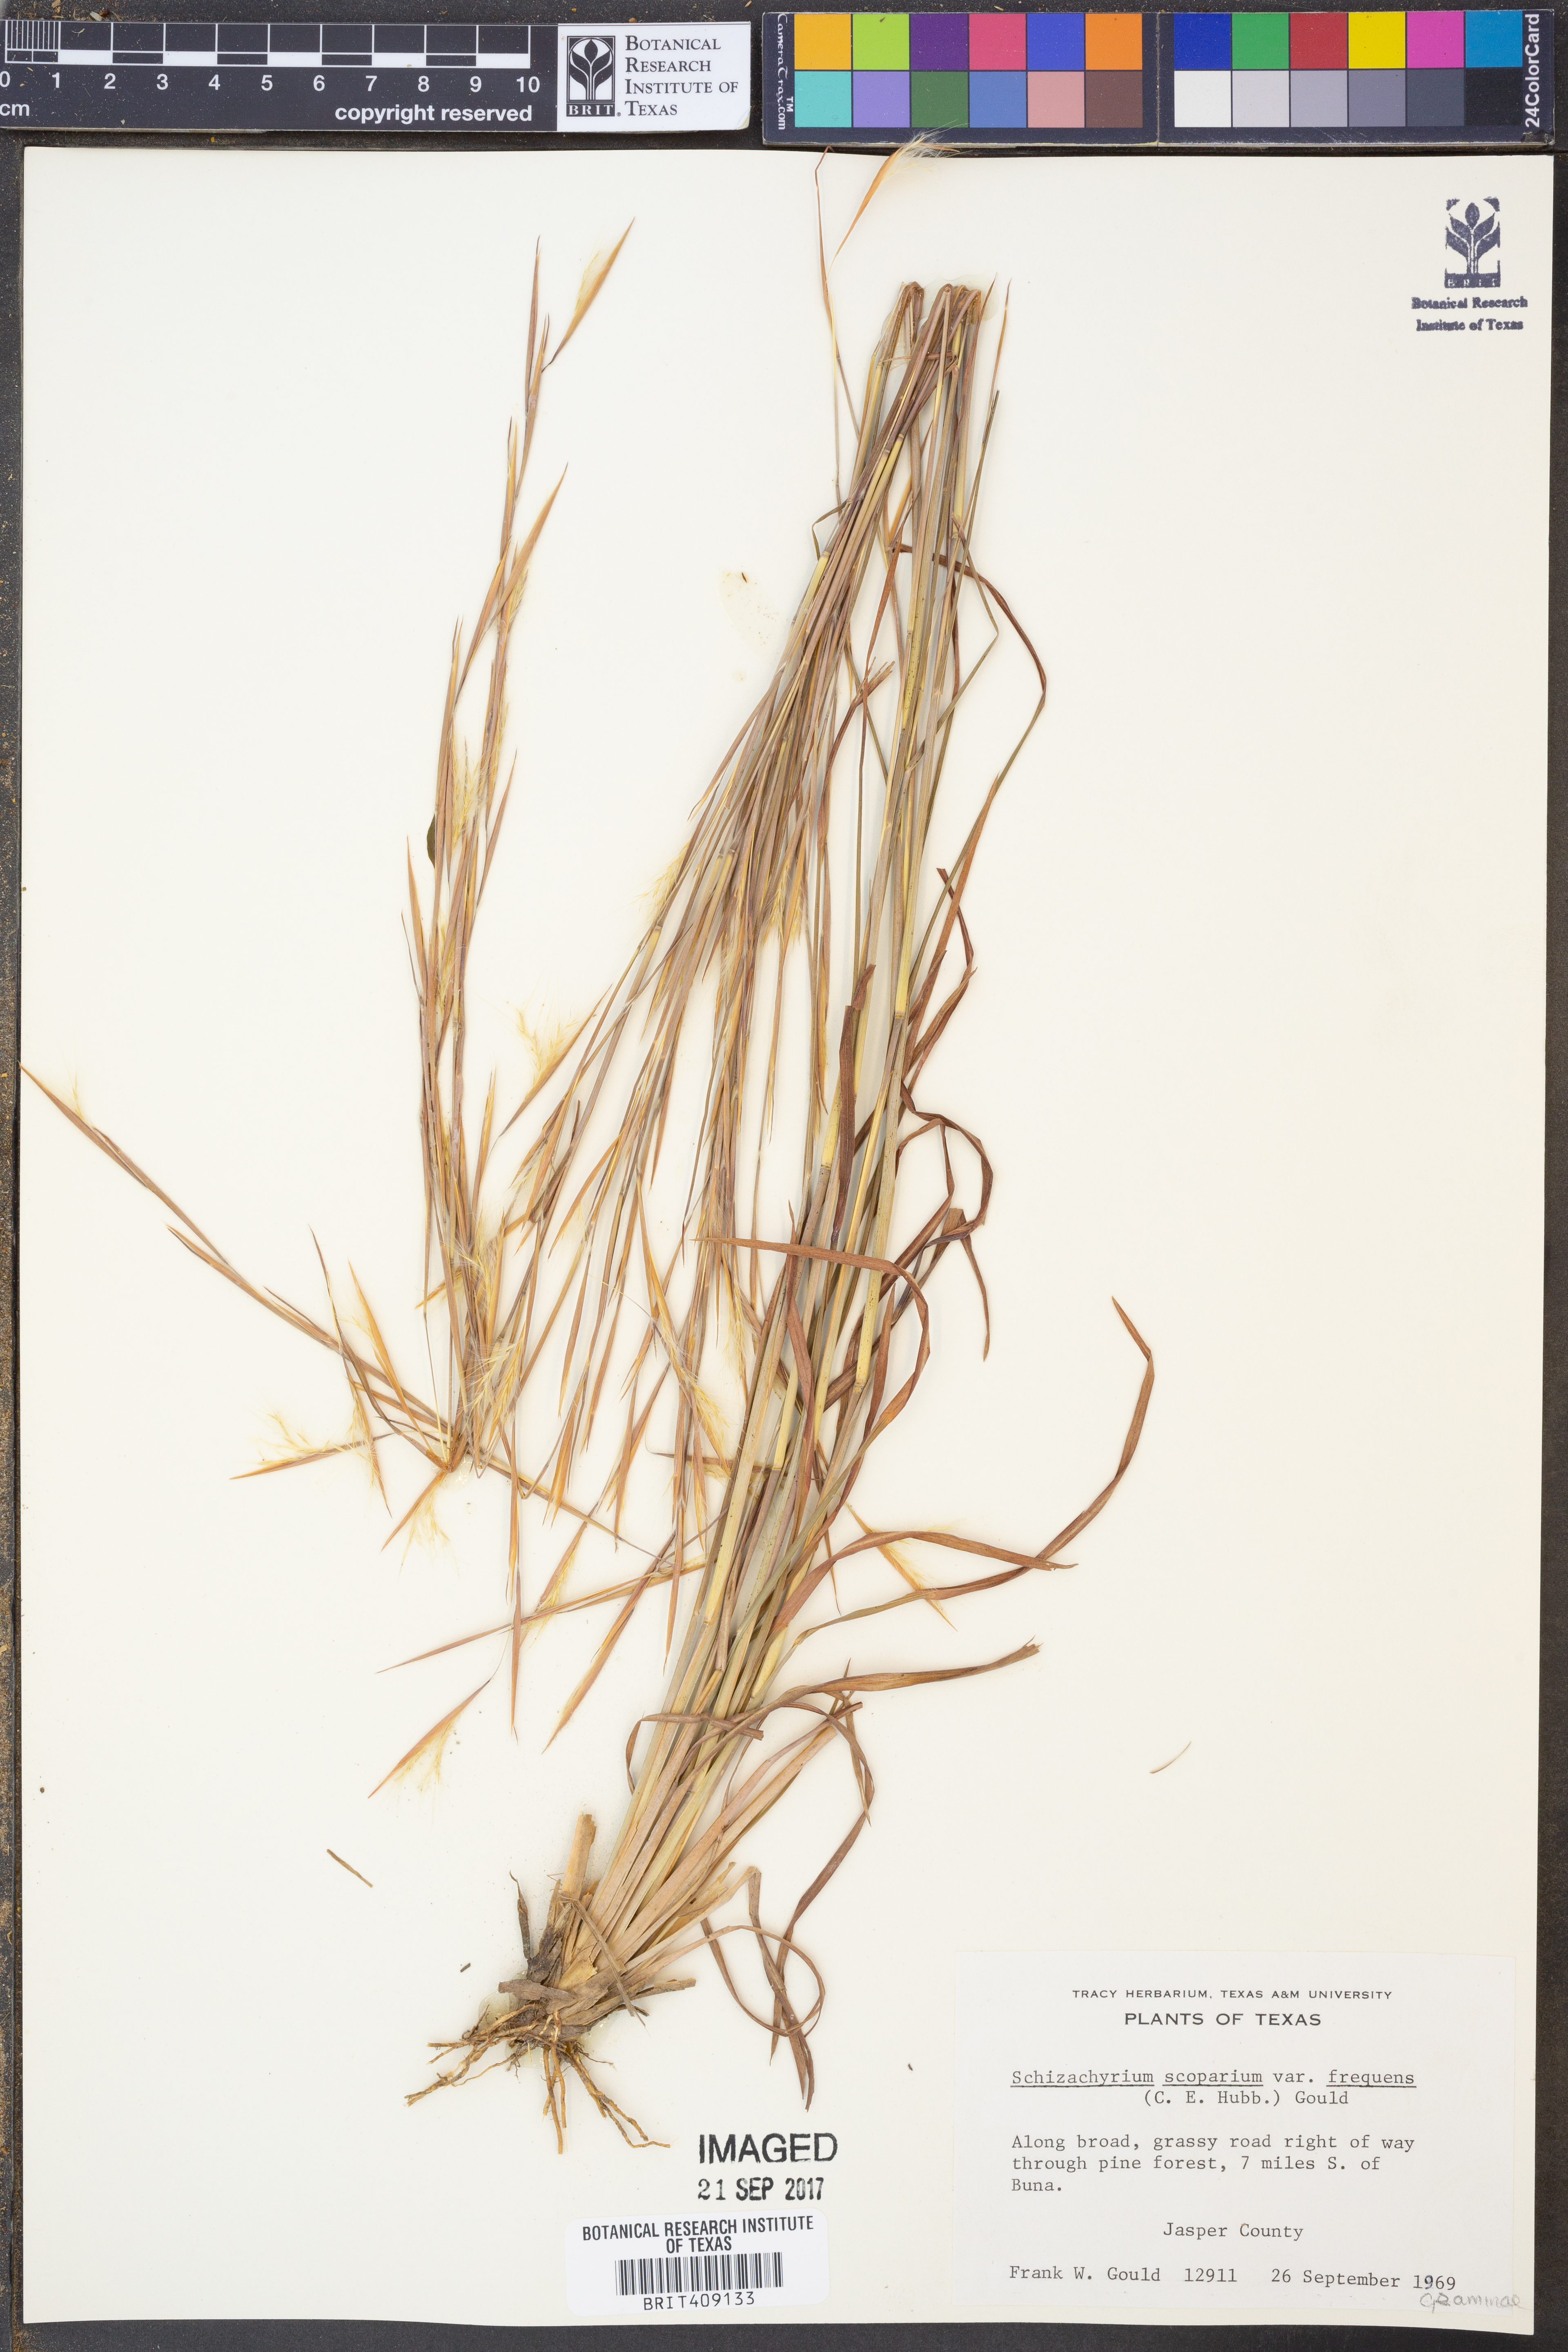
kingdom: Plantae
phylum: Tracheophyta
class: Liliopsida
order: Poales
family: Poaceae
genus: Schizachyrium
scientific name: Schizachyrium scoparium
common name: Little bluestem
